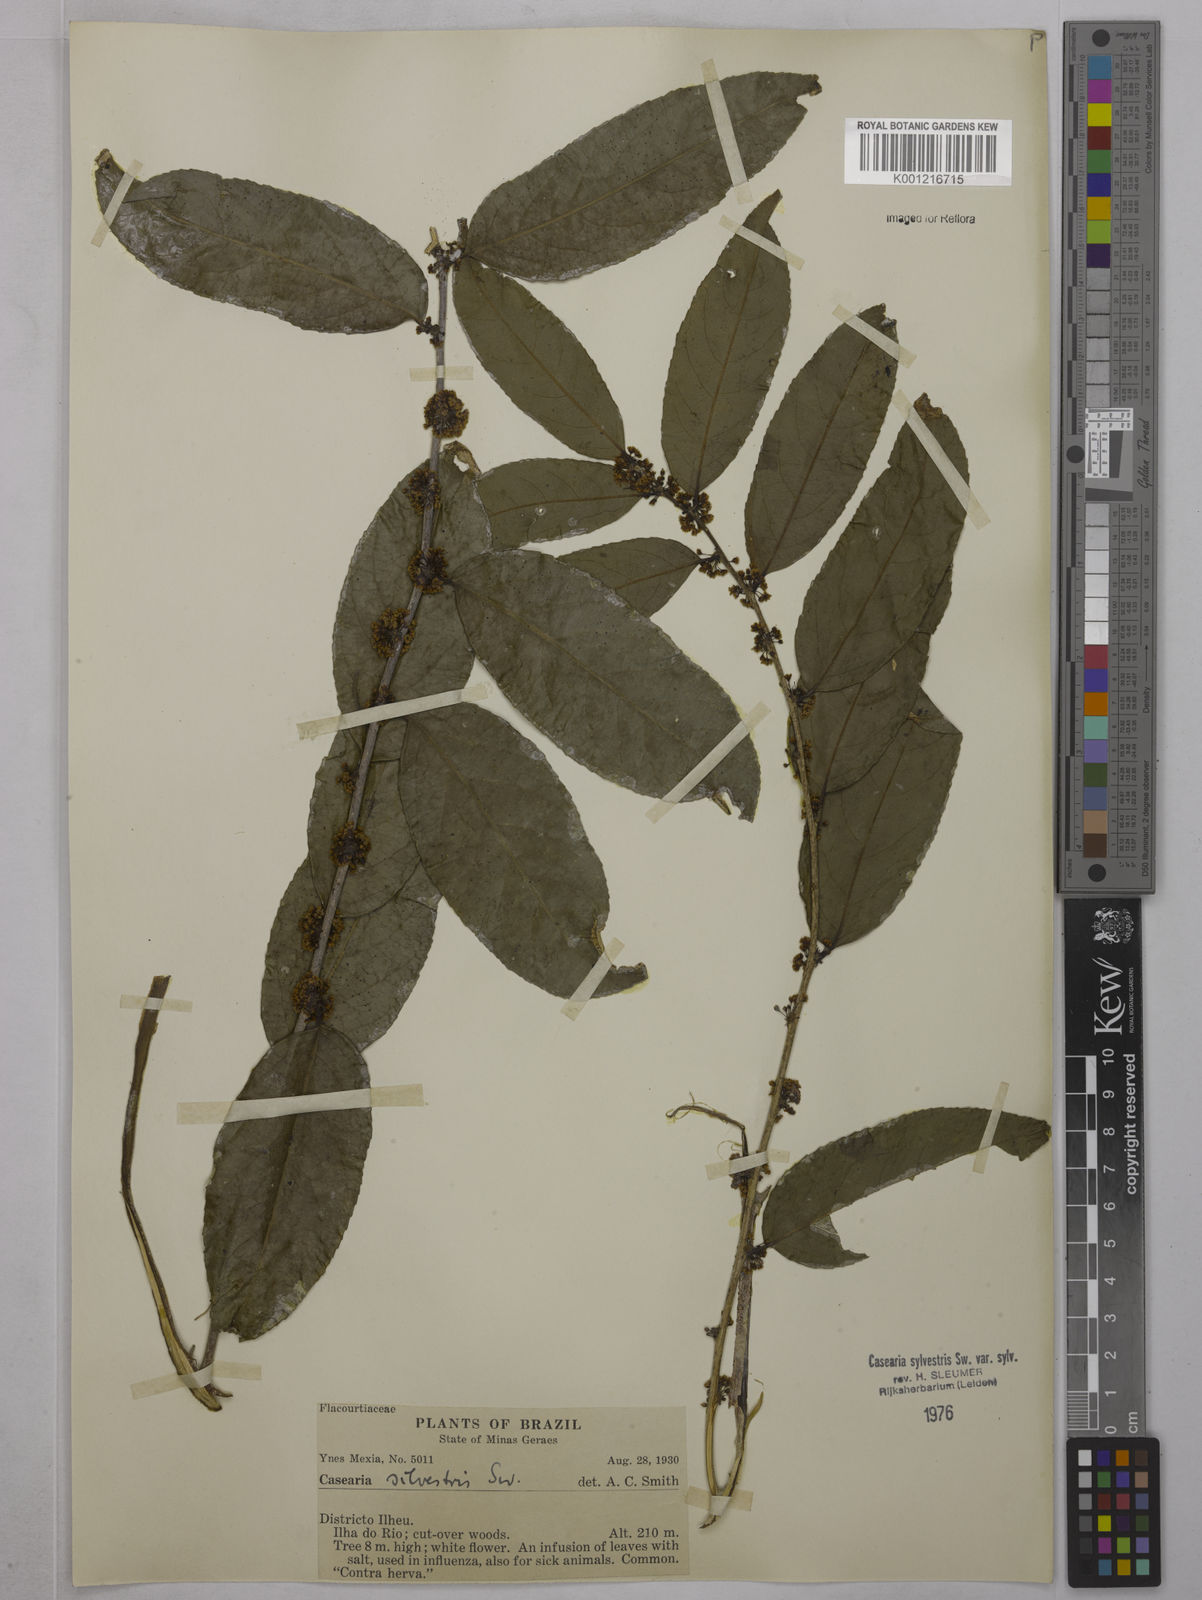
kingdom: Plantae
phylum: Tracheophyta
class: Magnoliopsida
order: Malpighiales
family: Salicaceae
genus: Casearia
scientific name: Casearia sylvestris
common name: Wild sage
